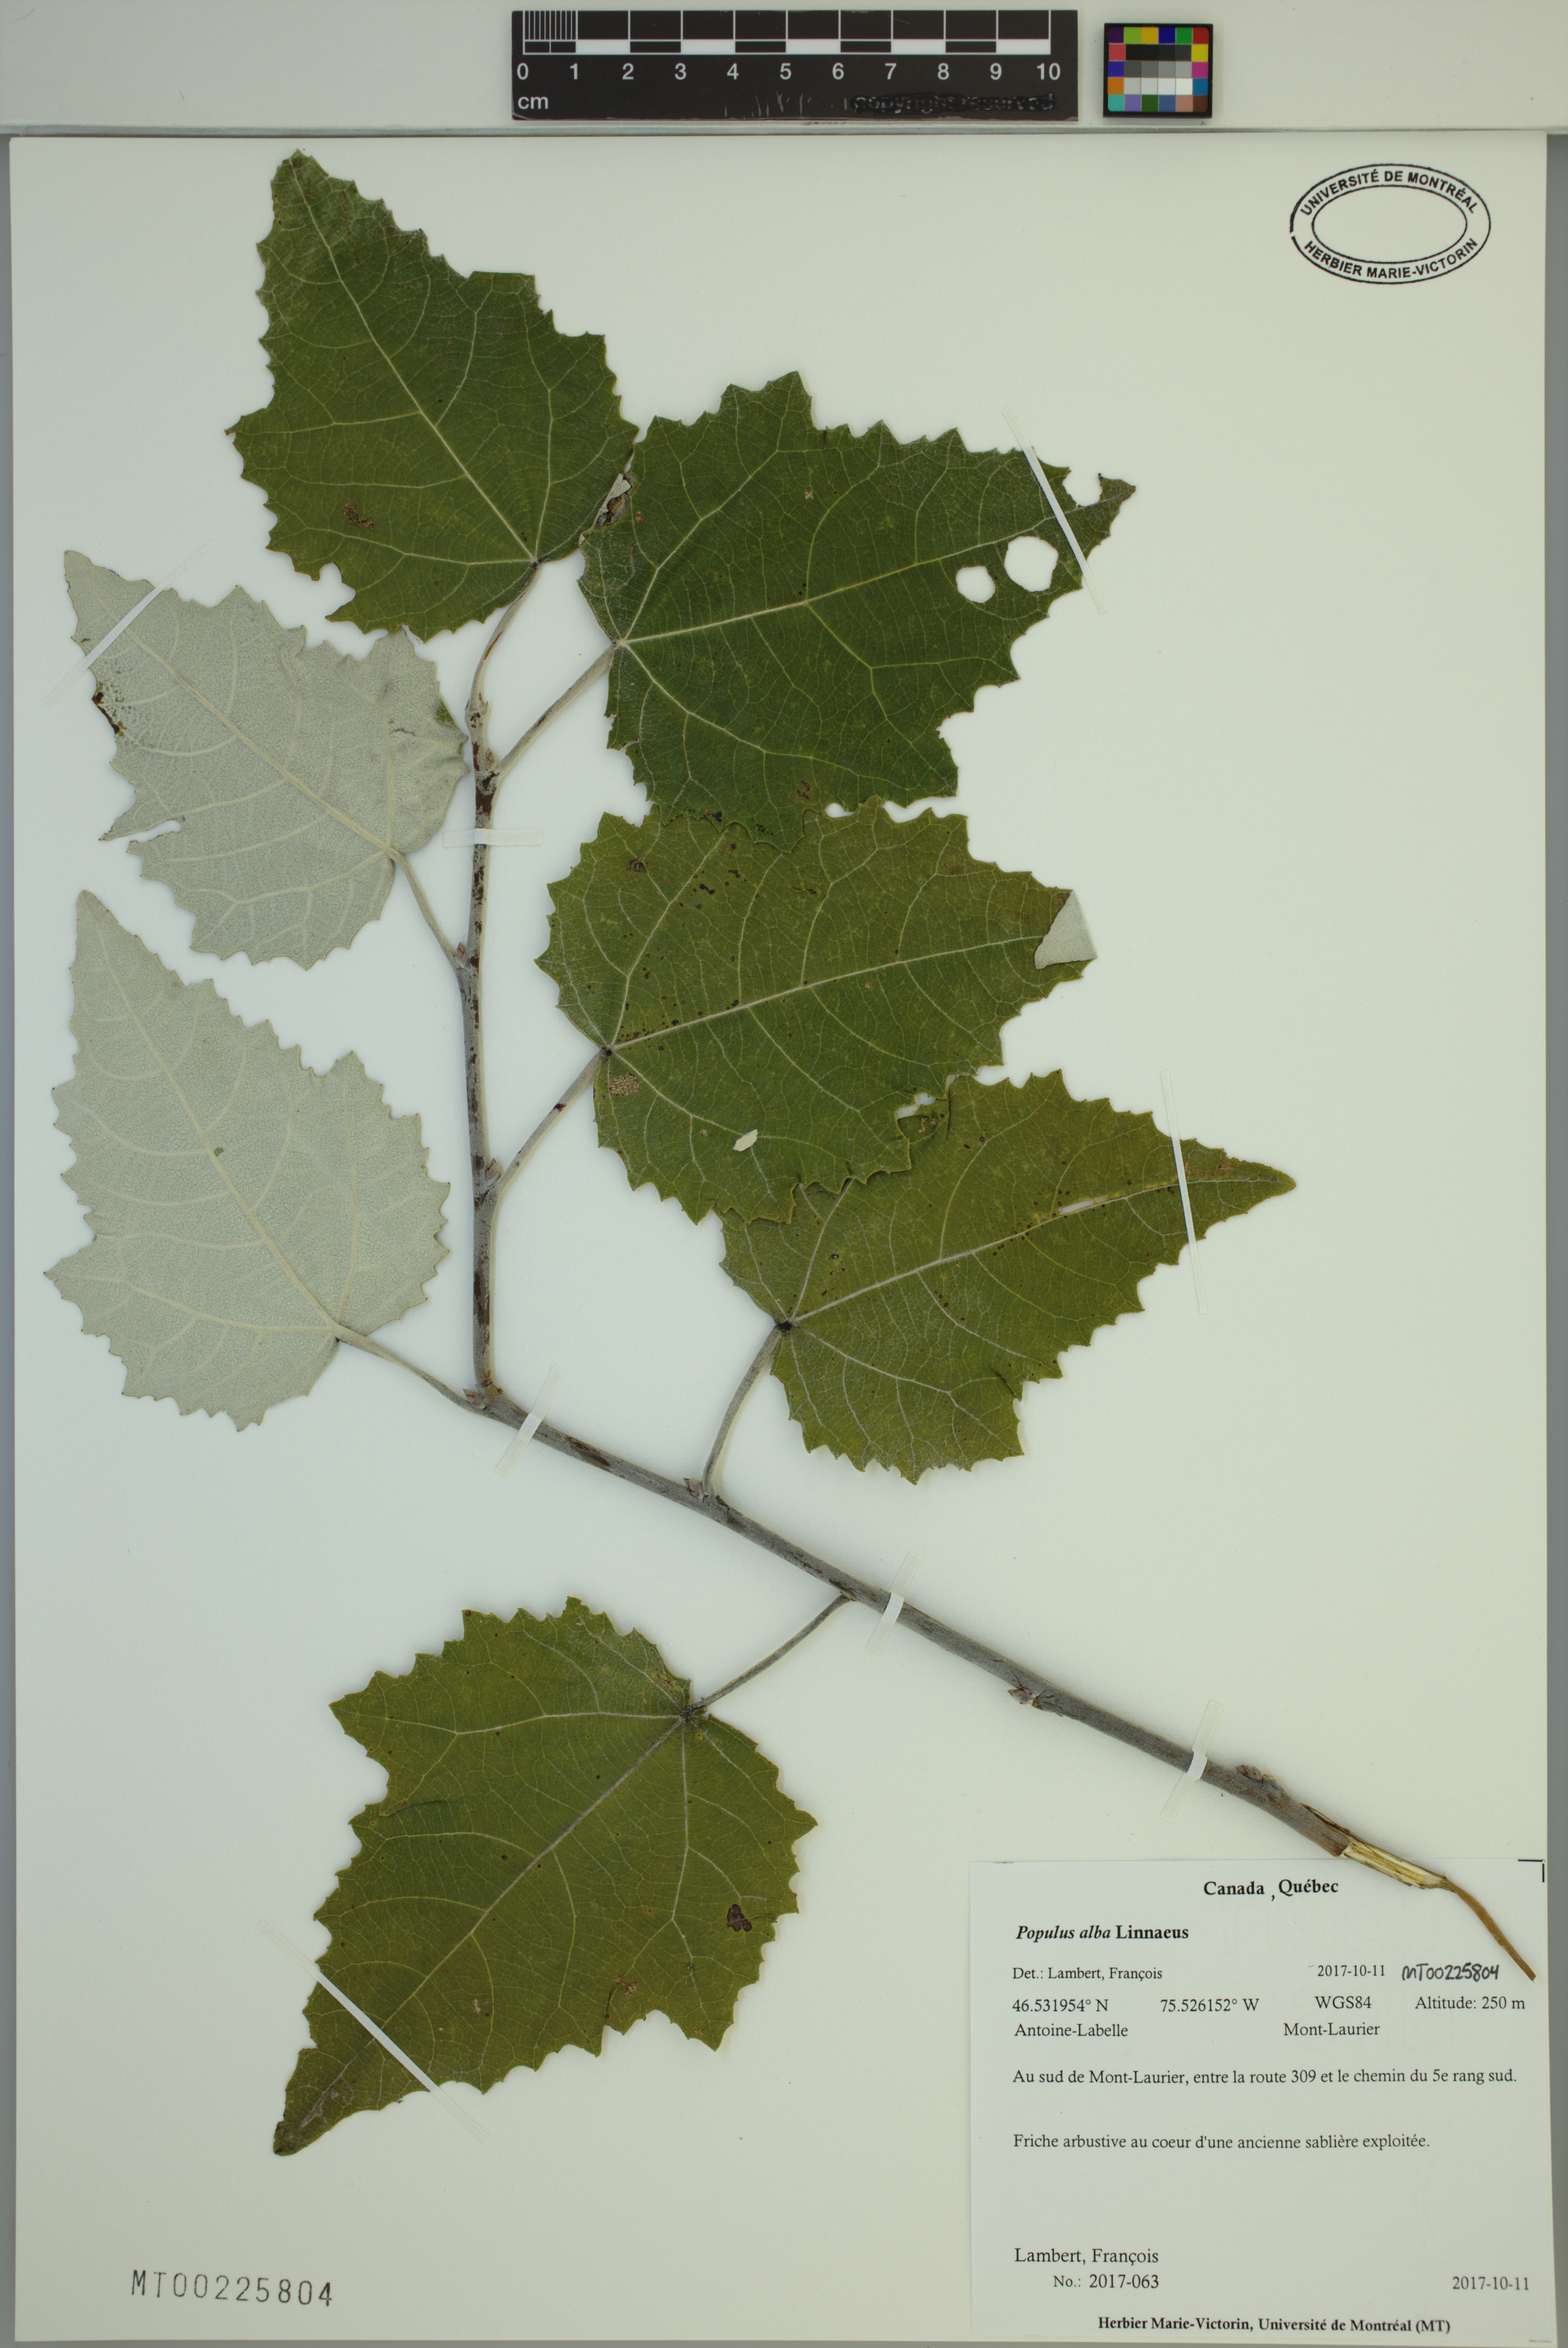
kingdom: Plantae
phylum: Tracheophyta
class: Magnoliopsida
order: Malpighiales
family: Salicaceae
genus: Populus
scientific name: Populus alba
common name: White poplar
